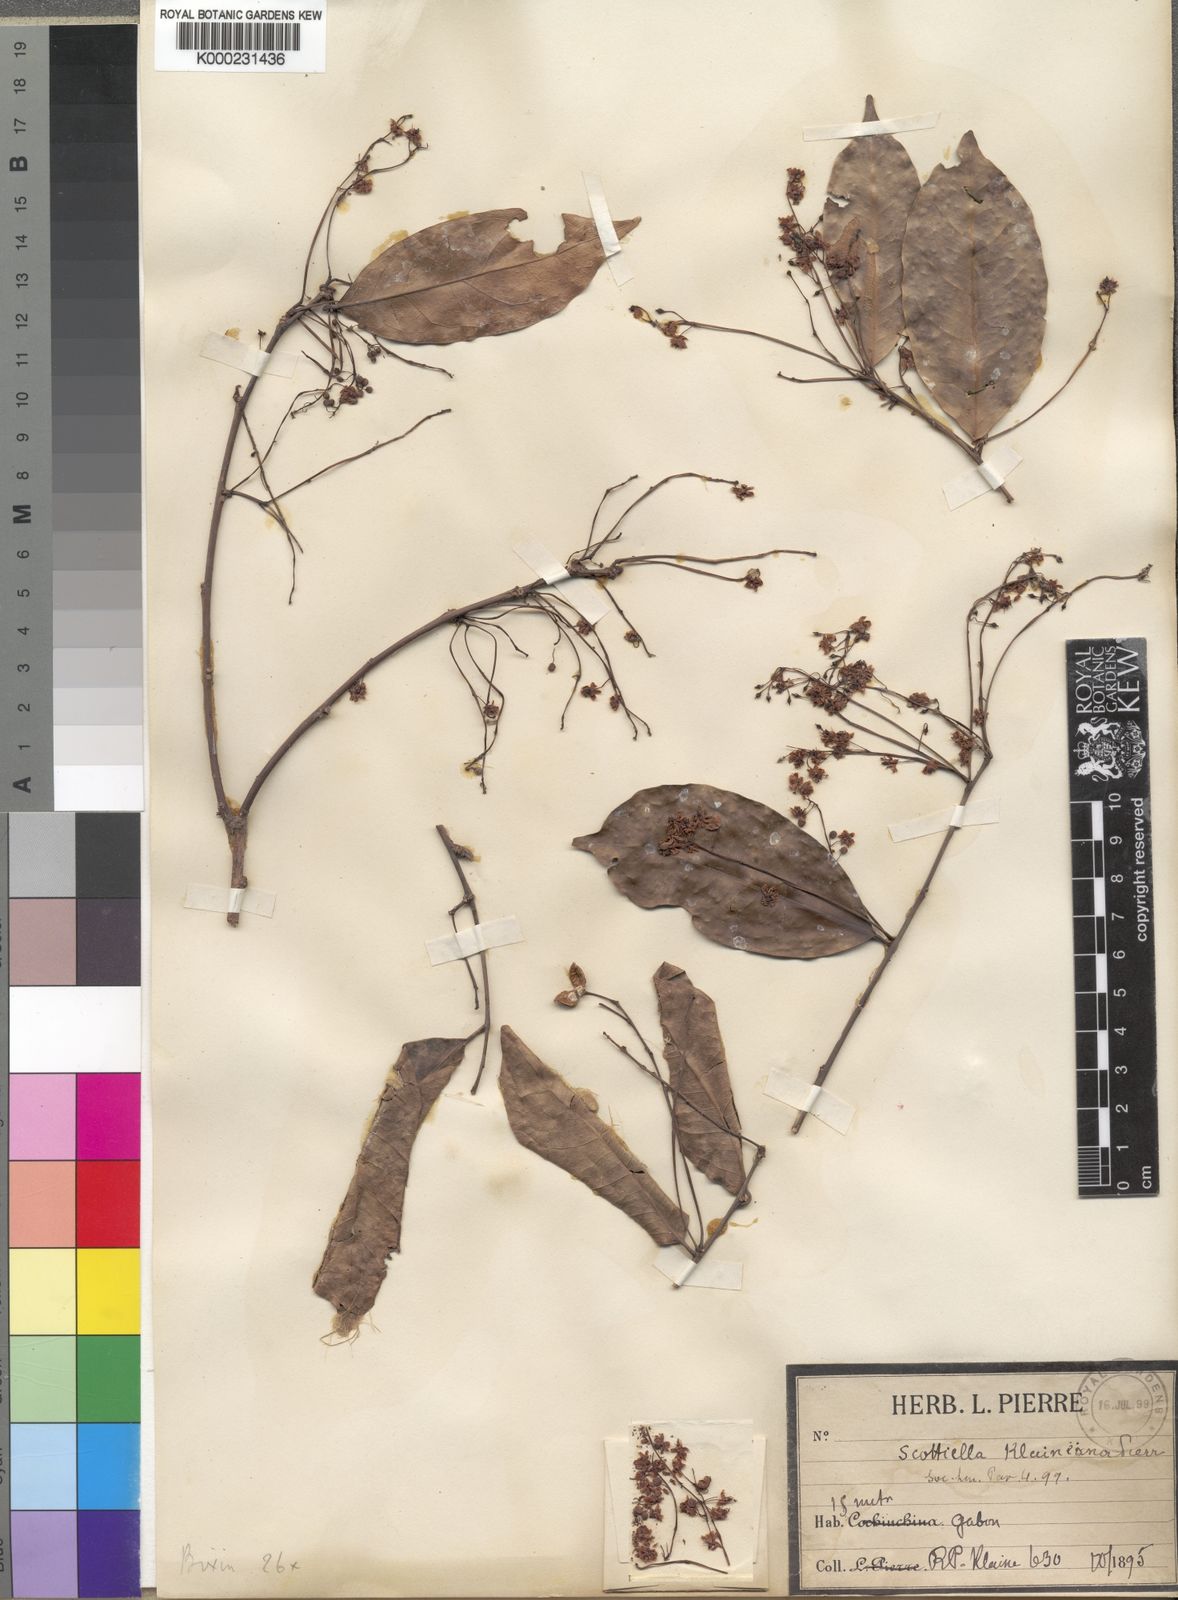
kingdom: Plantae
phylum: Tracheophyta
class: Magnoliopsida
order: Malpighiales
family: Achariaceae
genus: Scottellia
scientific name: Scottellia klaineana
